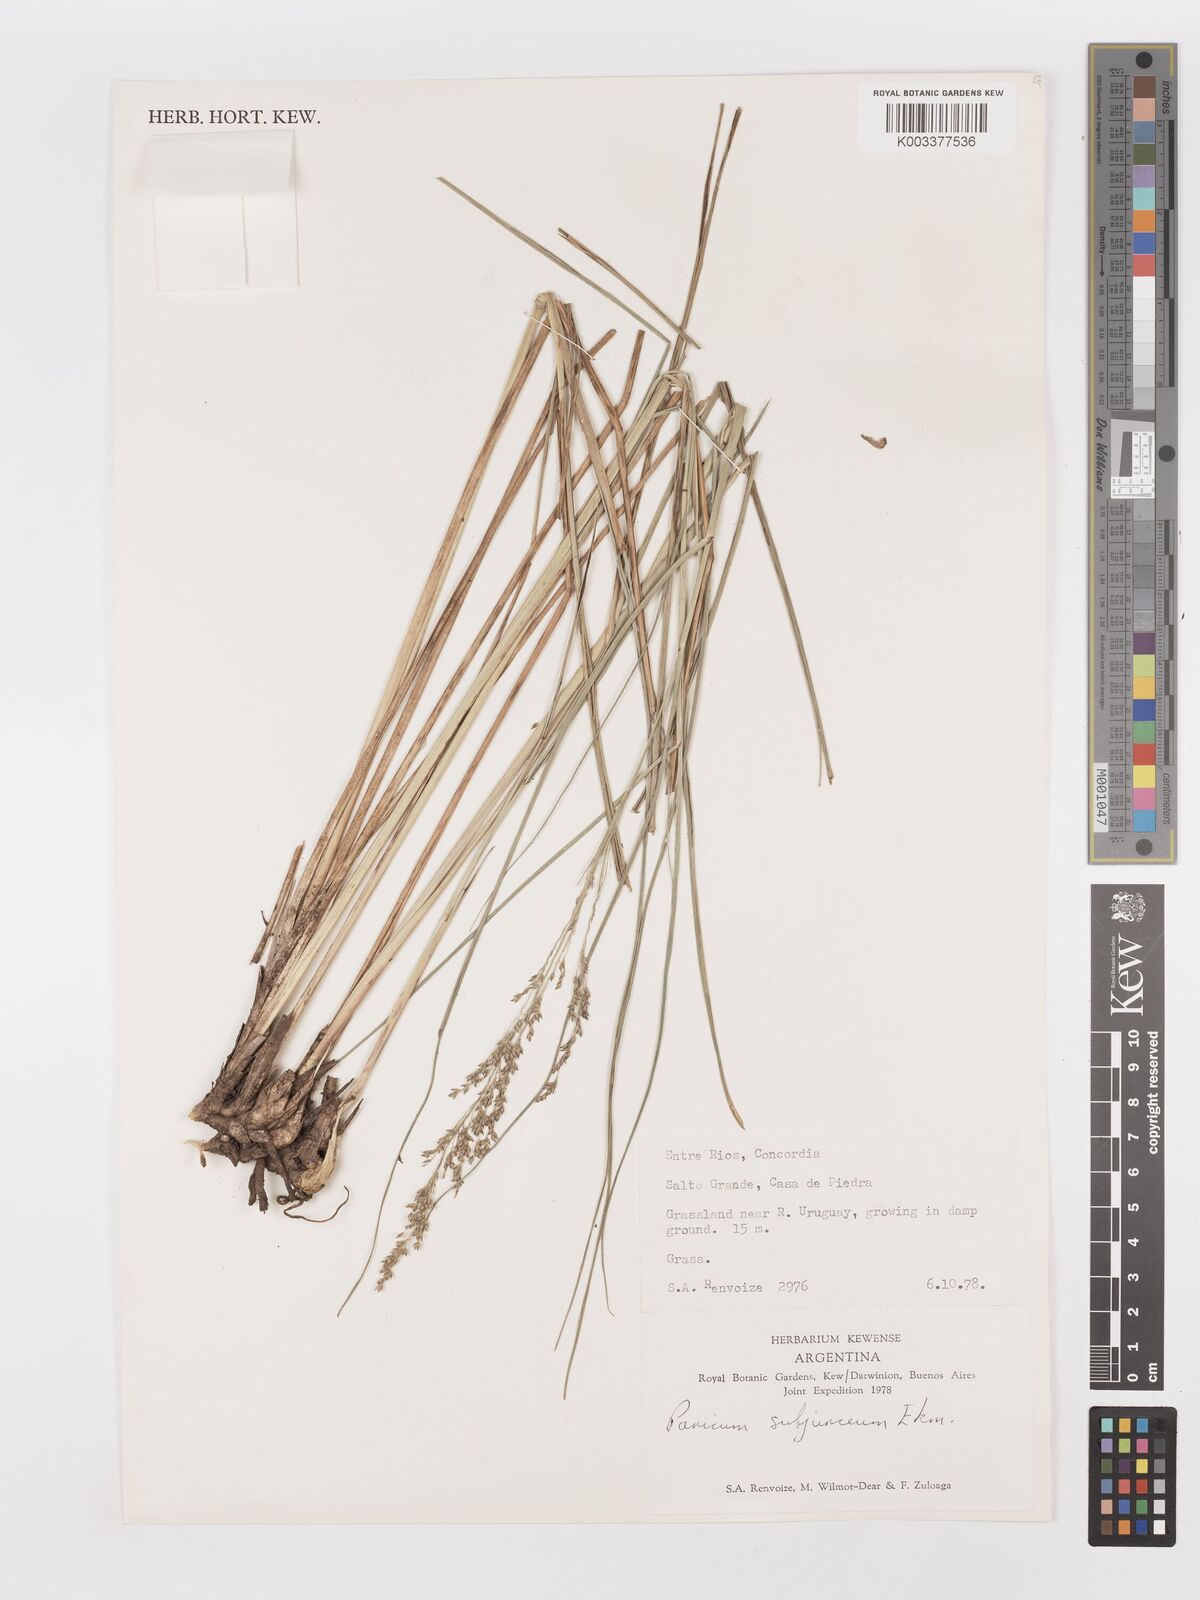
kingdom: Plantae
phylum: Tracheophyta
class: Liliopsida
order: Poales
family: Poaceae
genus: Panicum
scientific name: Panicum glabripes
